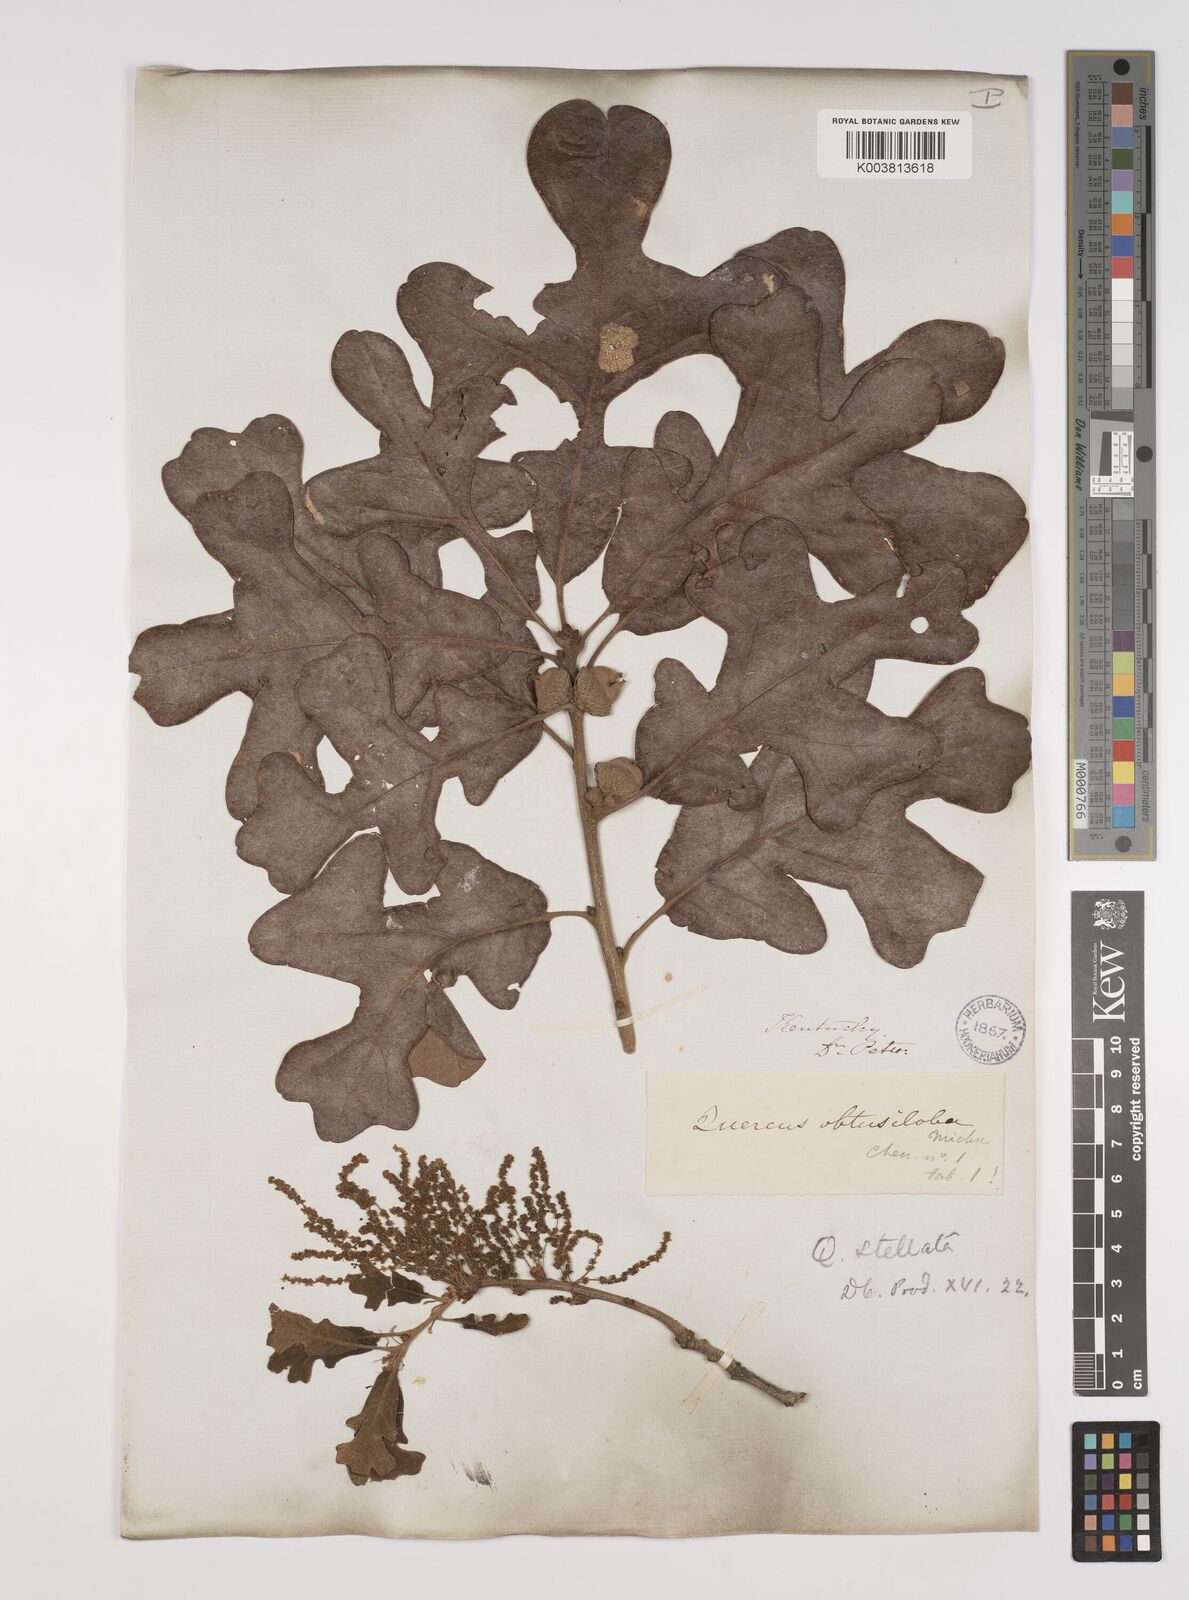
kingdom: Plantae
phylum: Tracheophyta
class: Magnoliopsida
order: Fagales
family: Fagaceae
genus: Quercus
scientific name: Quercus stellata
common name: Post oak
